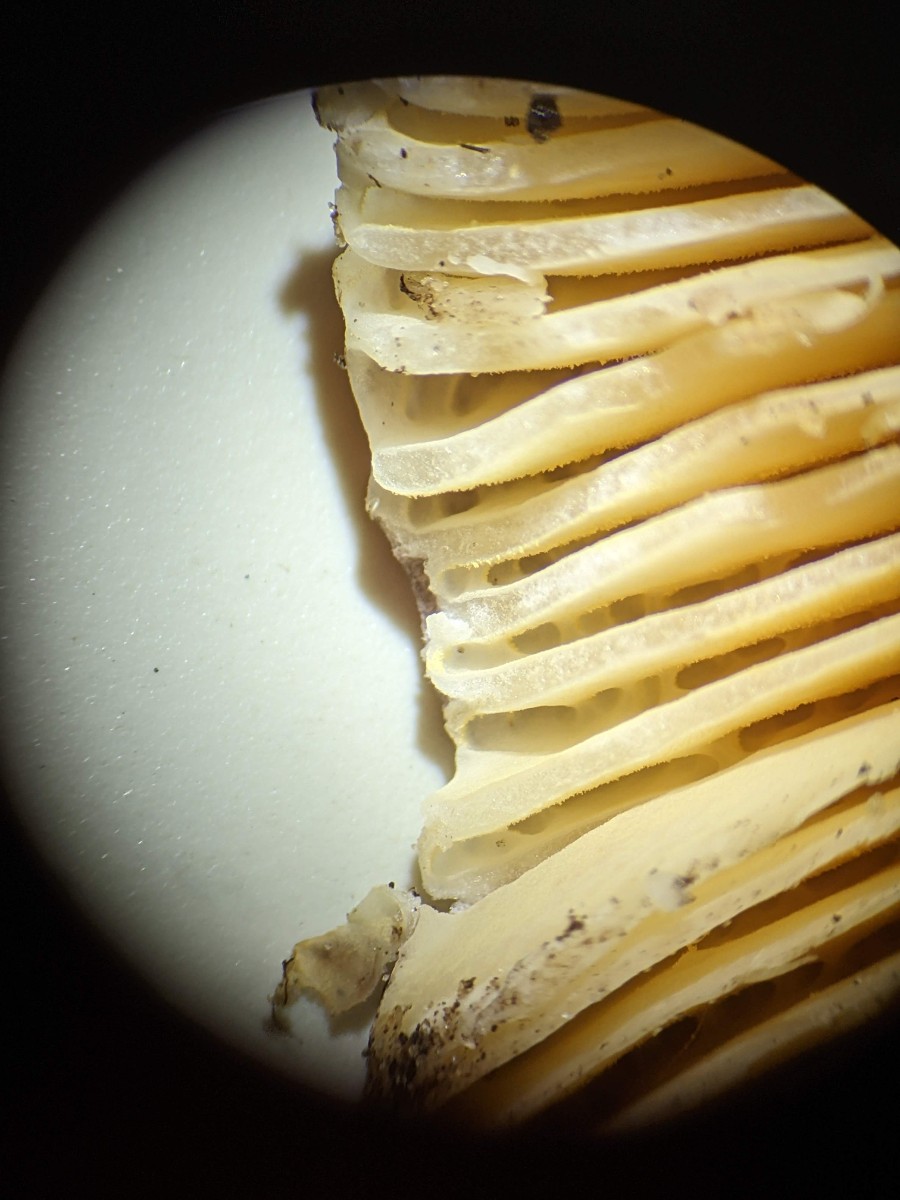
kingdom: Fungi
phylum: Basidiomycota
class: Agaricomycetes
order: Russulales
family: Russulaceae
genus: Russula
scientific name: Russula integra
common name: mandel-skørhat
